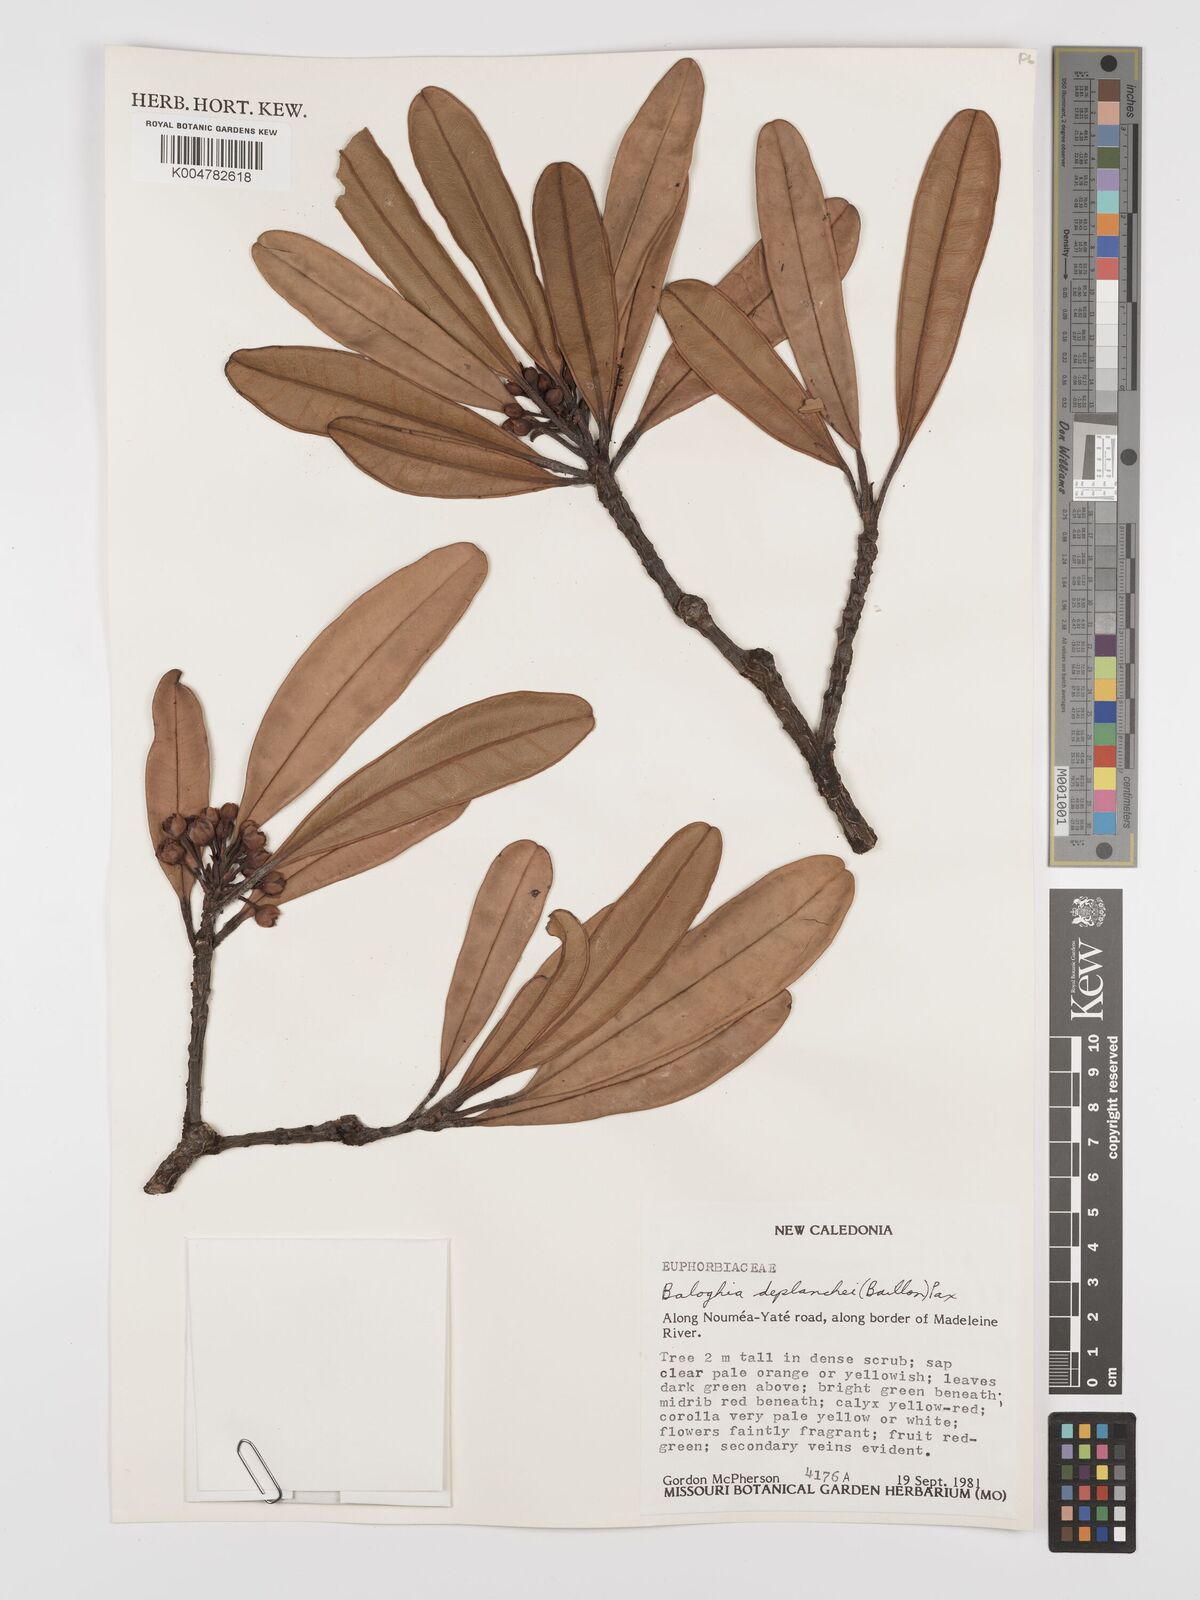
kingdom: Plantae
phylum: Tracheophyta
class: Magnoliopsida
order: Malpighiales
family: Euphorbiaceae
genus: Baloghia
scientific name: Baloghia deplanchei
